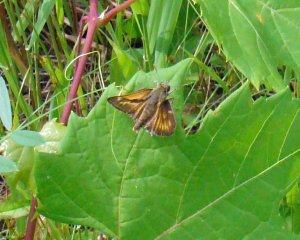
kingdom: Animalia
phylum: Arthropoda
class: Insecta
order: Lepidoptera
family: Hesperiidae
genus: Polites
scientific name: Polites
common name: Long Dash Skipper
